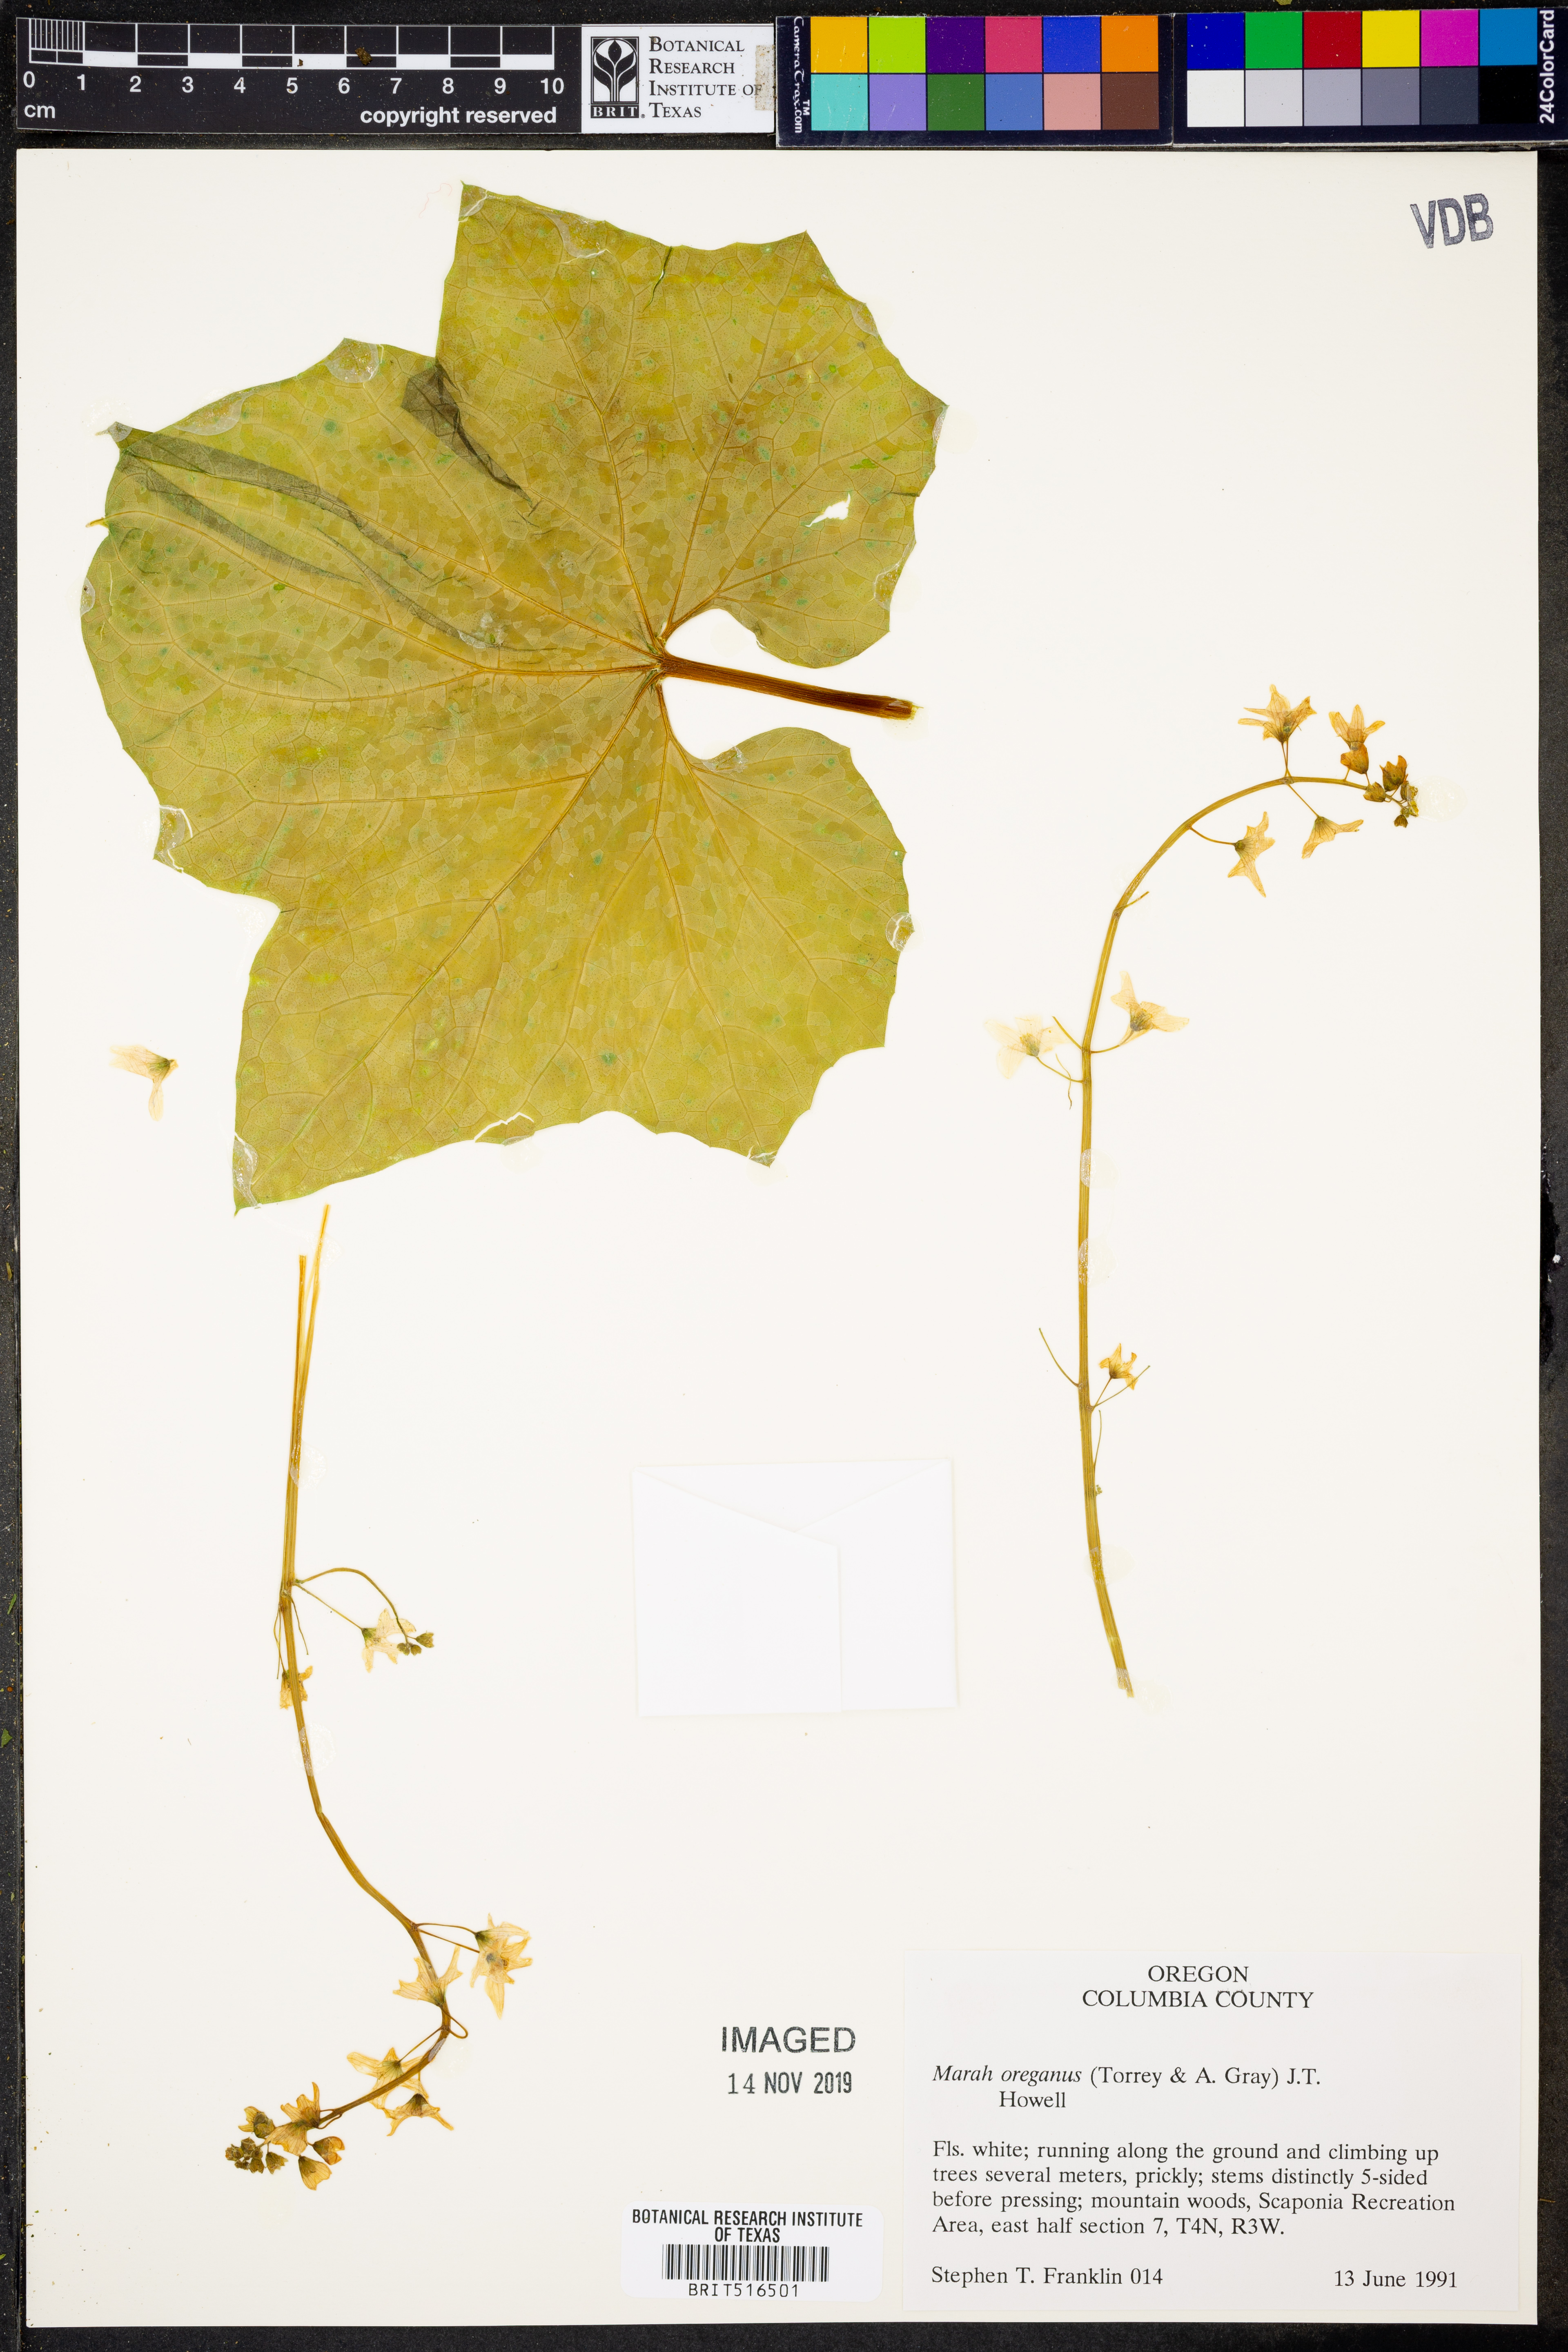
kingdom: Plantae
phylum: Tracheophyta
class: Magnoliopsida
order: Cucurbitales
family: Cucurbitaceae
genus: Marah
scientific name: Marah oregana
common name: Coastal manroot
